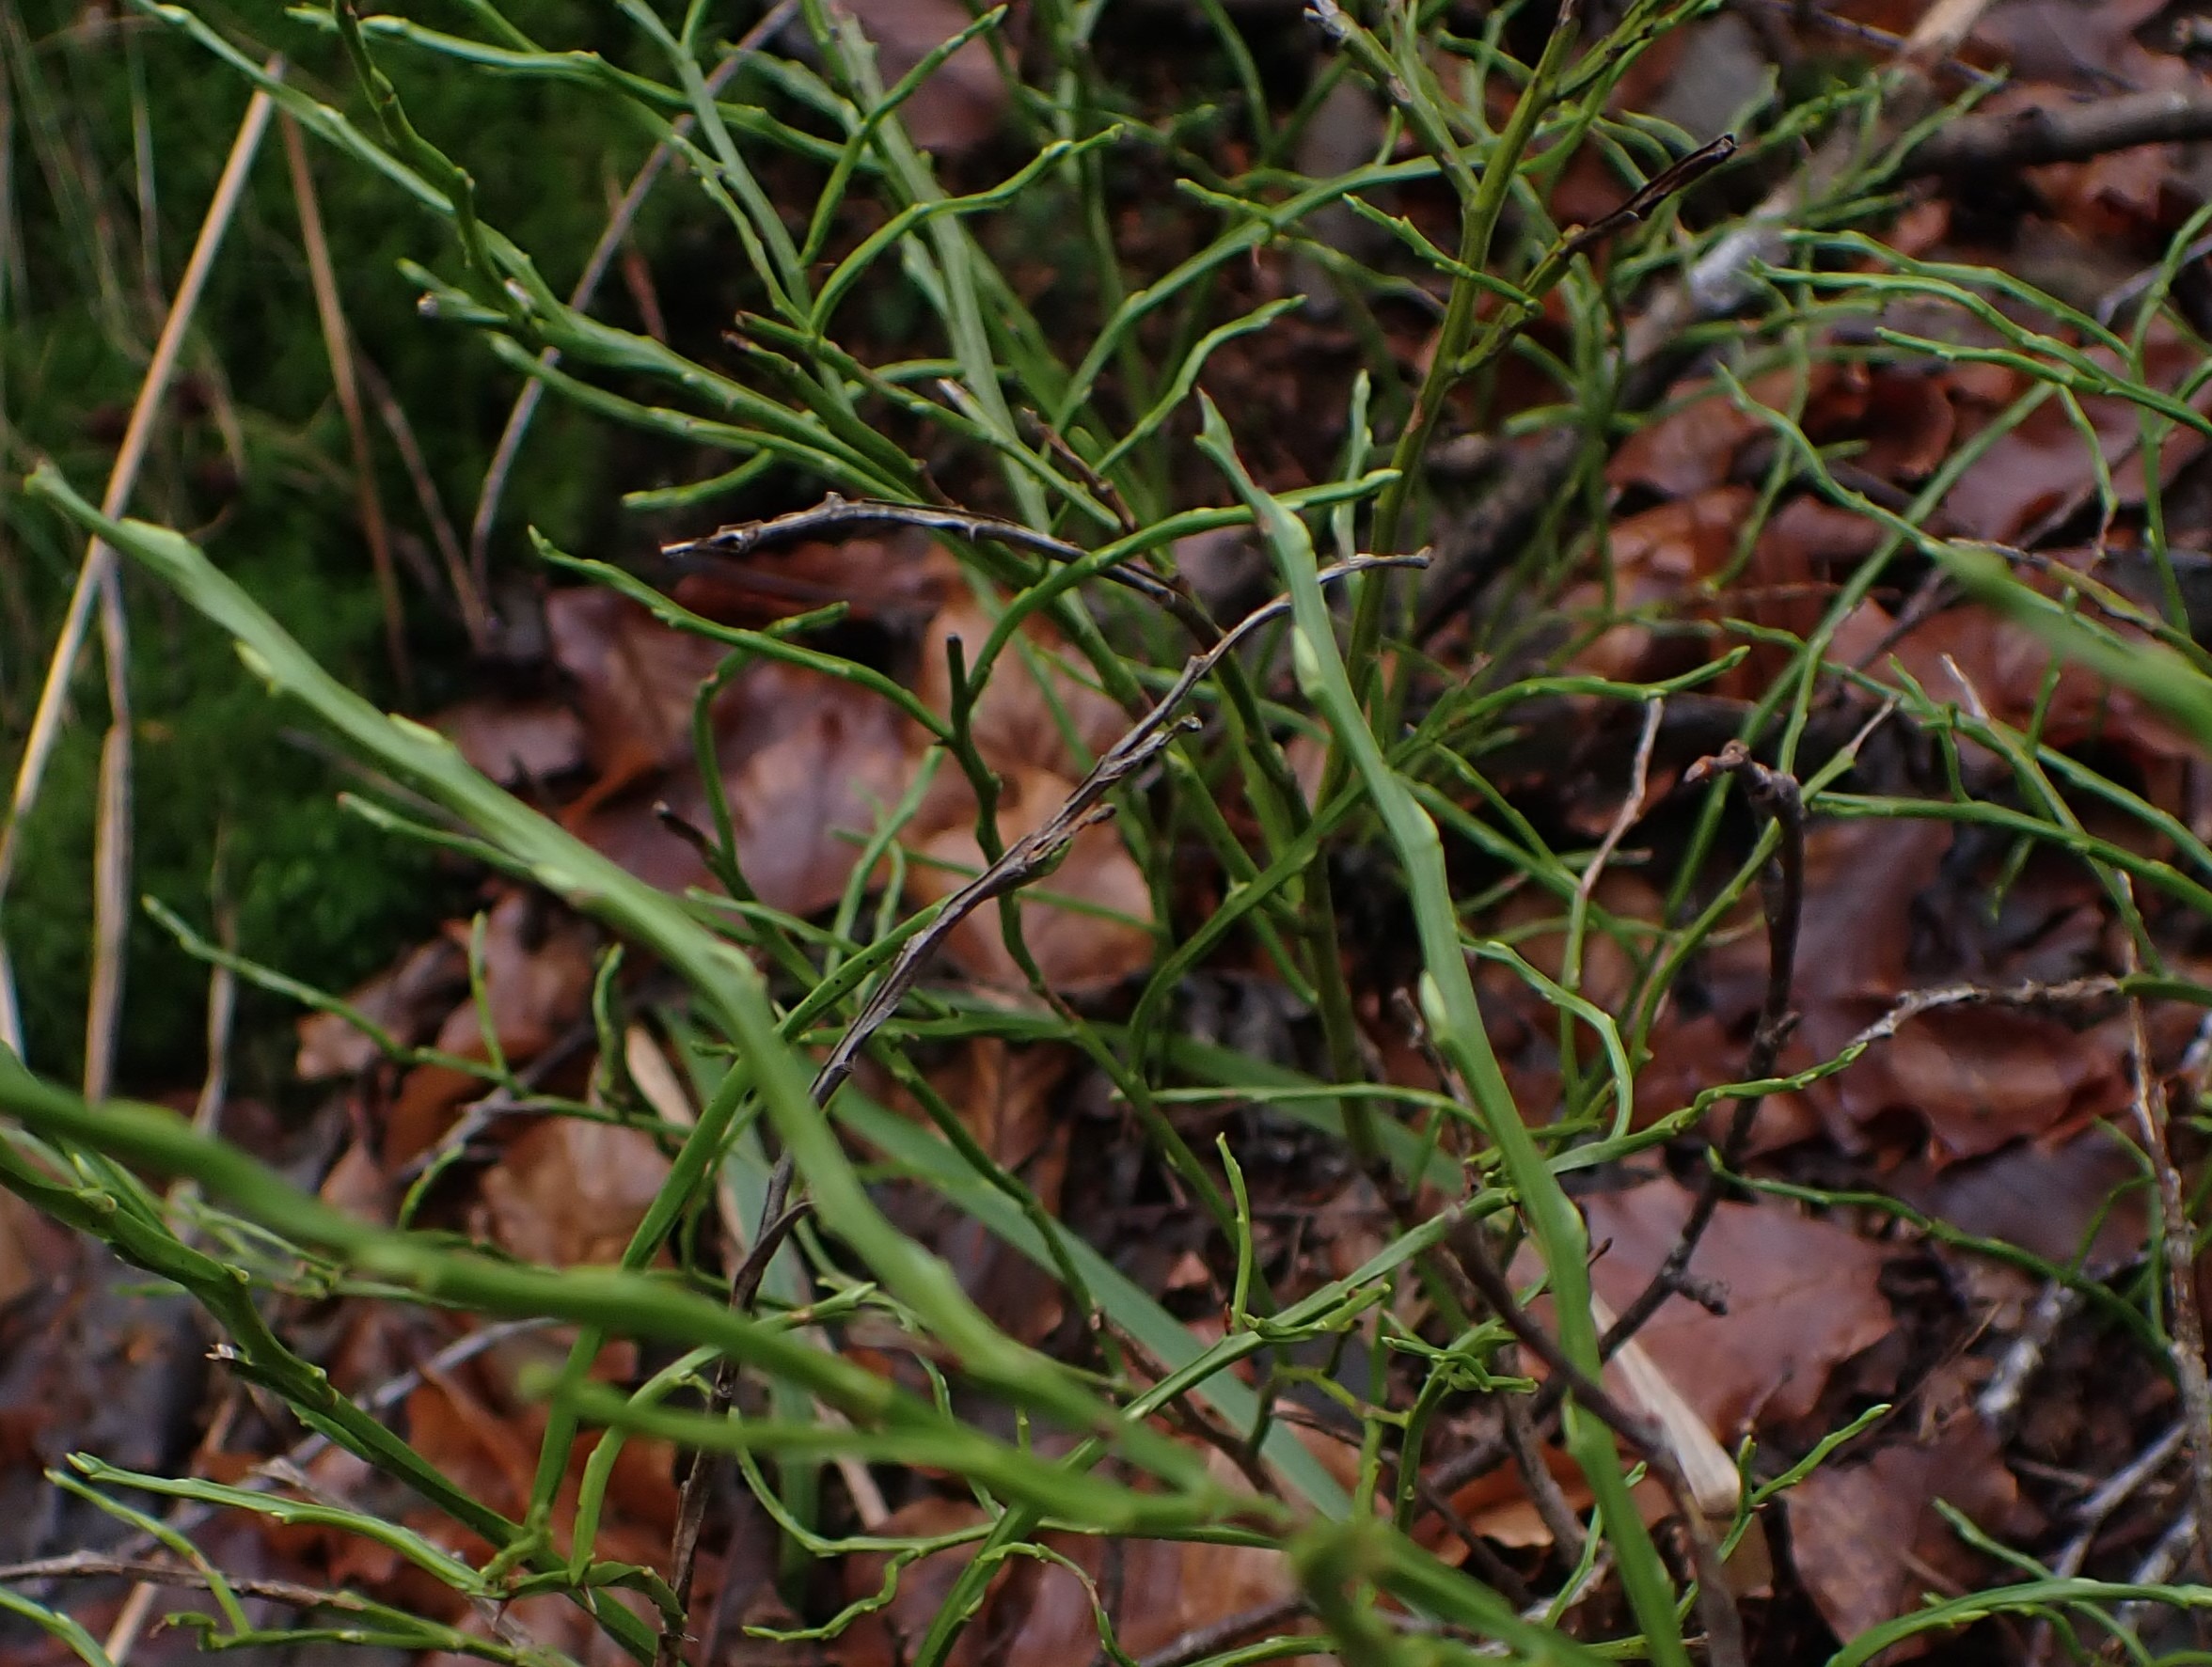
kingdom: Plantae
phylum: Tracheophyta
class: Magnoliopsida
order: Ericales
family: Ericaceae
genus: Vaccinium
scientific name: Vaccinium myrtillus
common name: Blåbær
